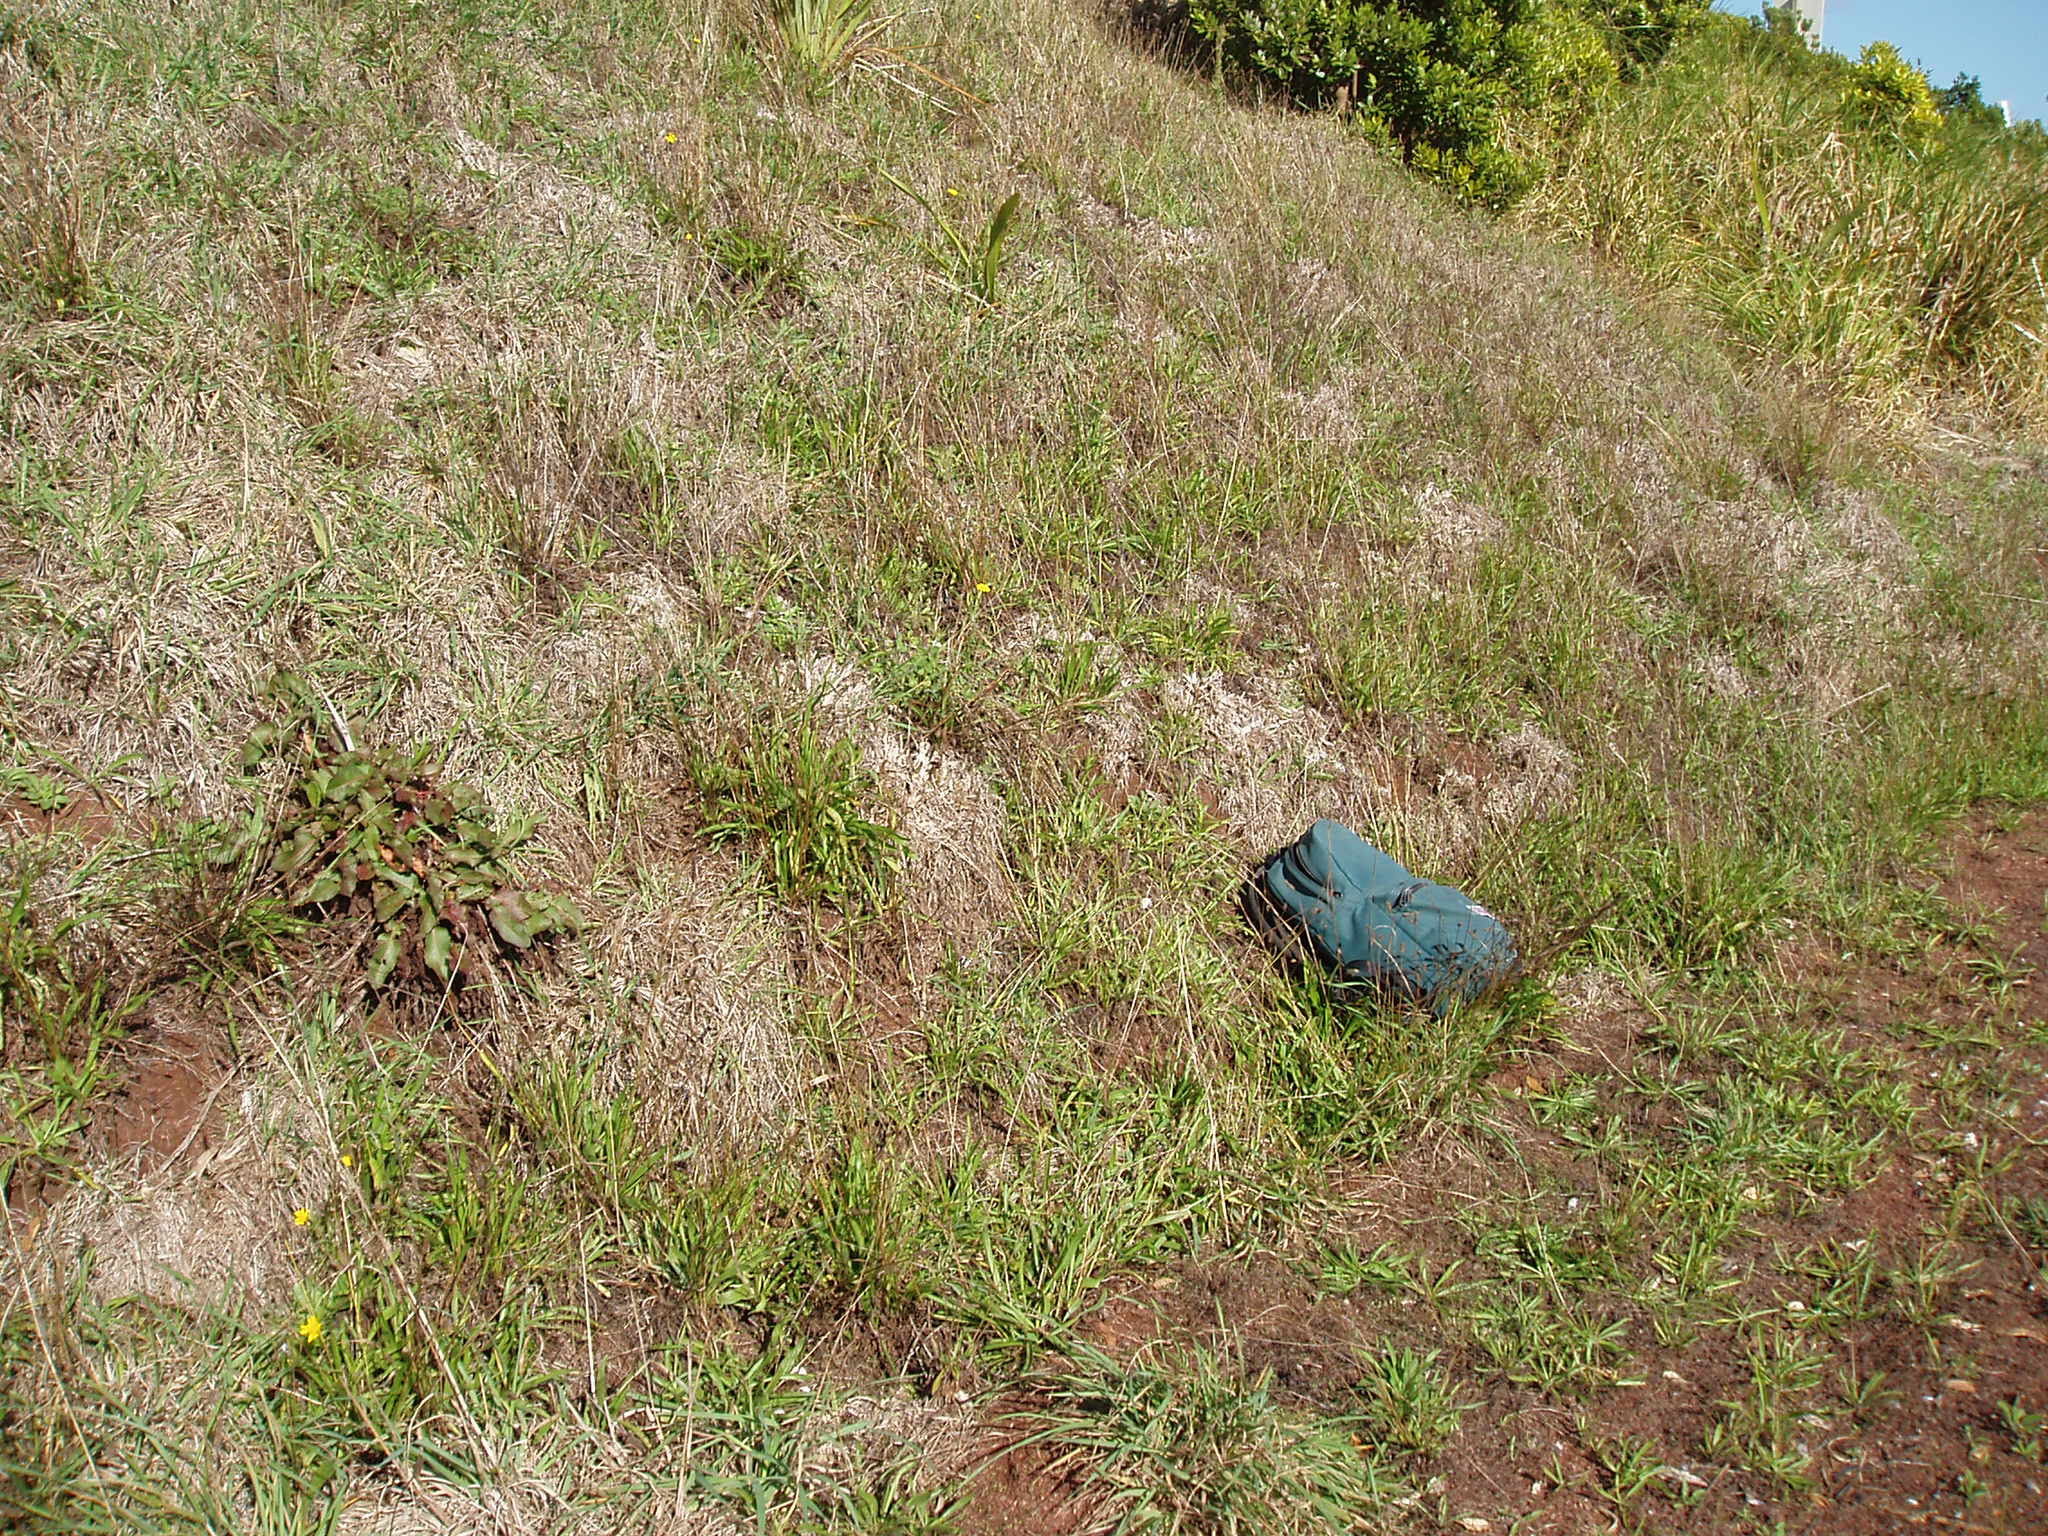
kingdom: Plantae
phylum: Tracheophyta
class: Magnoliopsida
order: Asterales
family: Asteraceae
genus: Euchiton
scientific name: Euchiton sphaericus
